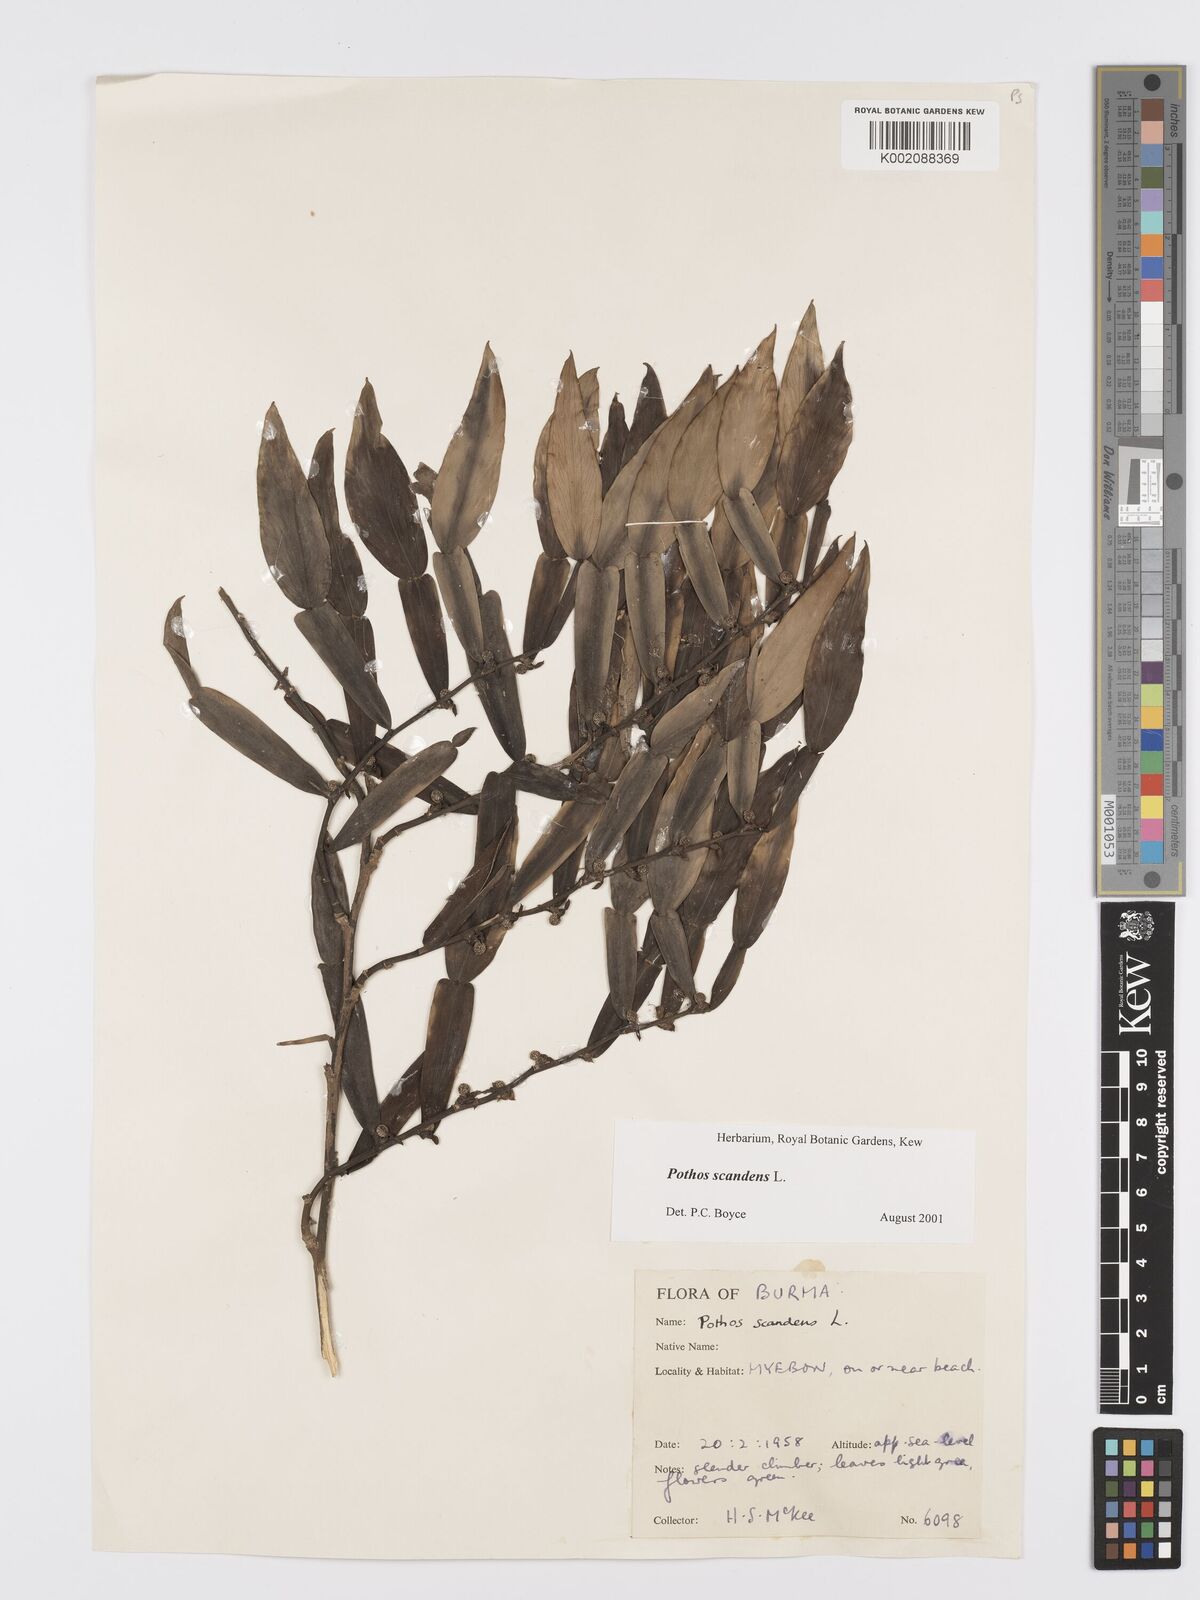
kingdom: Plantae
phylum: Tracheophyta
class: Liliopsida
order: Alismatales
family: Araceae
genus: Pothos
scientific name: Pothos scandens
